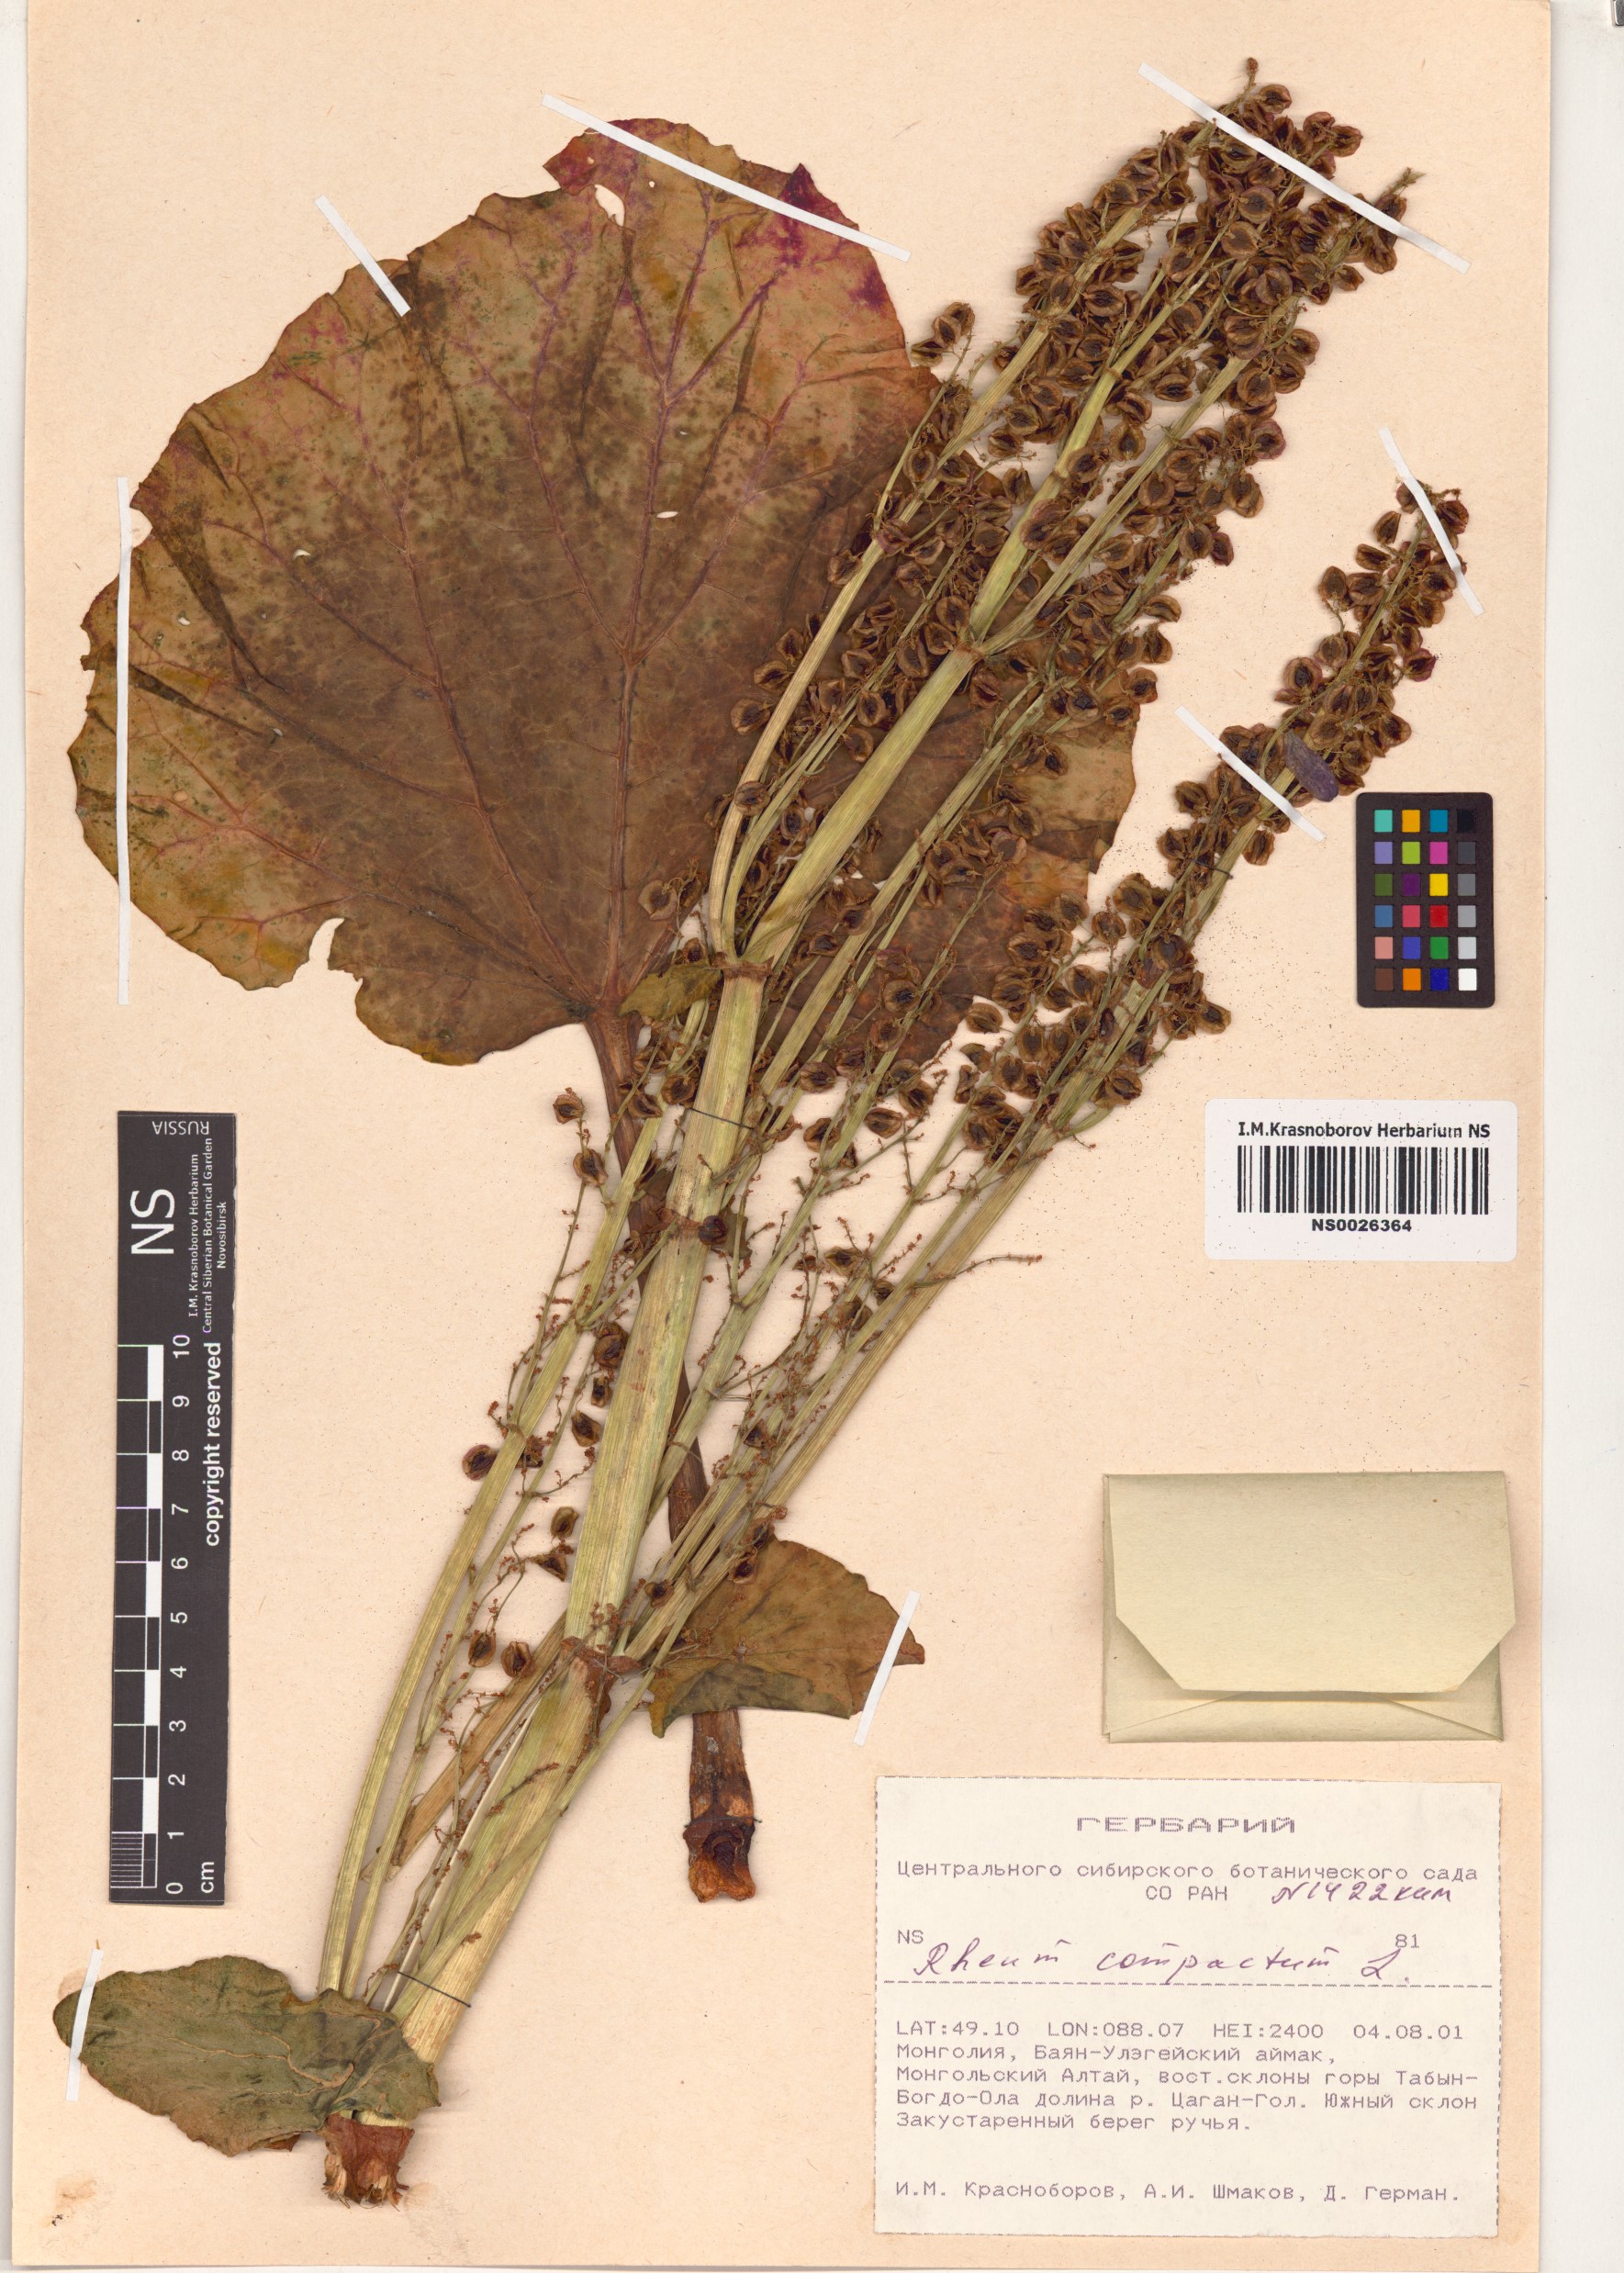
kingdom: Plantae
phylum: Tracheophyta
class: Magnoliopsida
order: Caryophyllales
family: Polygonaceae
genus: Rheum
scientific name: Rheum compactum
